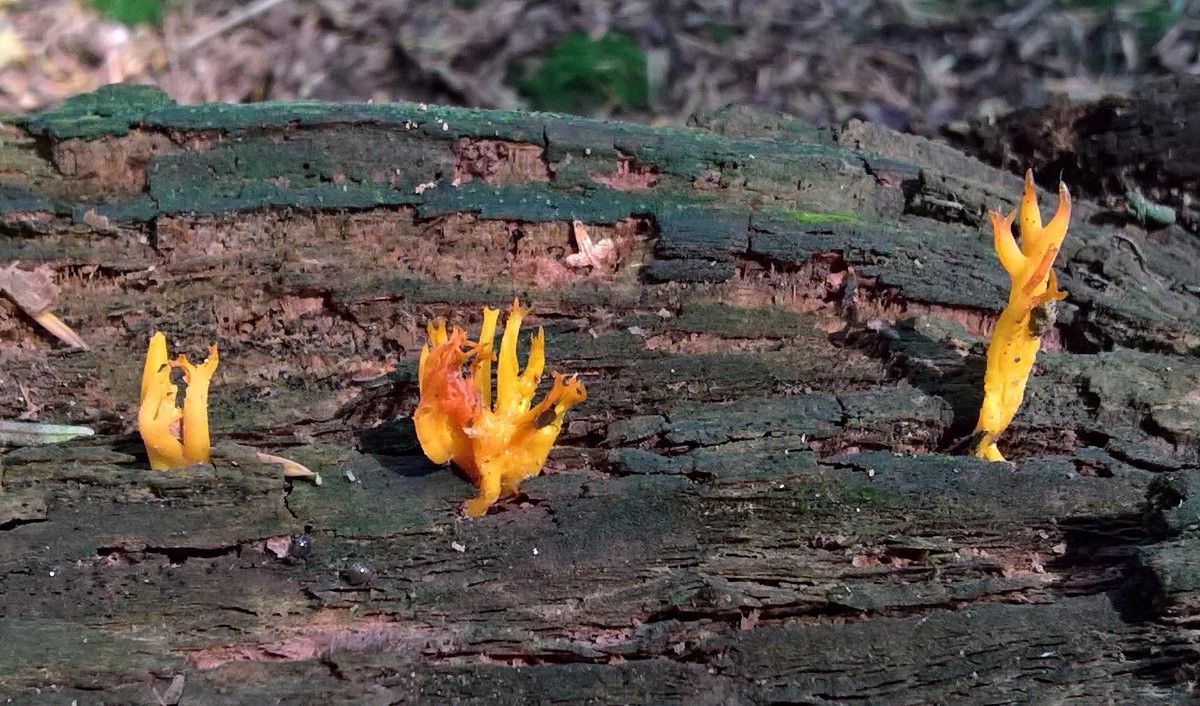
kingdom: Fungi
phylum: Basidiomycota
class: Dacrymycetes
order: Dacrymycetales
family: Dacrymycetaceae
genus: Calocera
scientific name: Calocera viscosa
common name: almindelig guldgaffel
